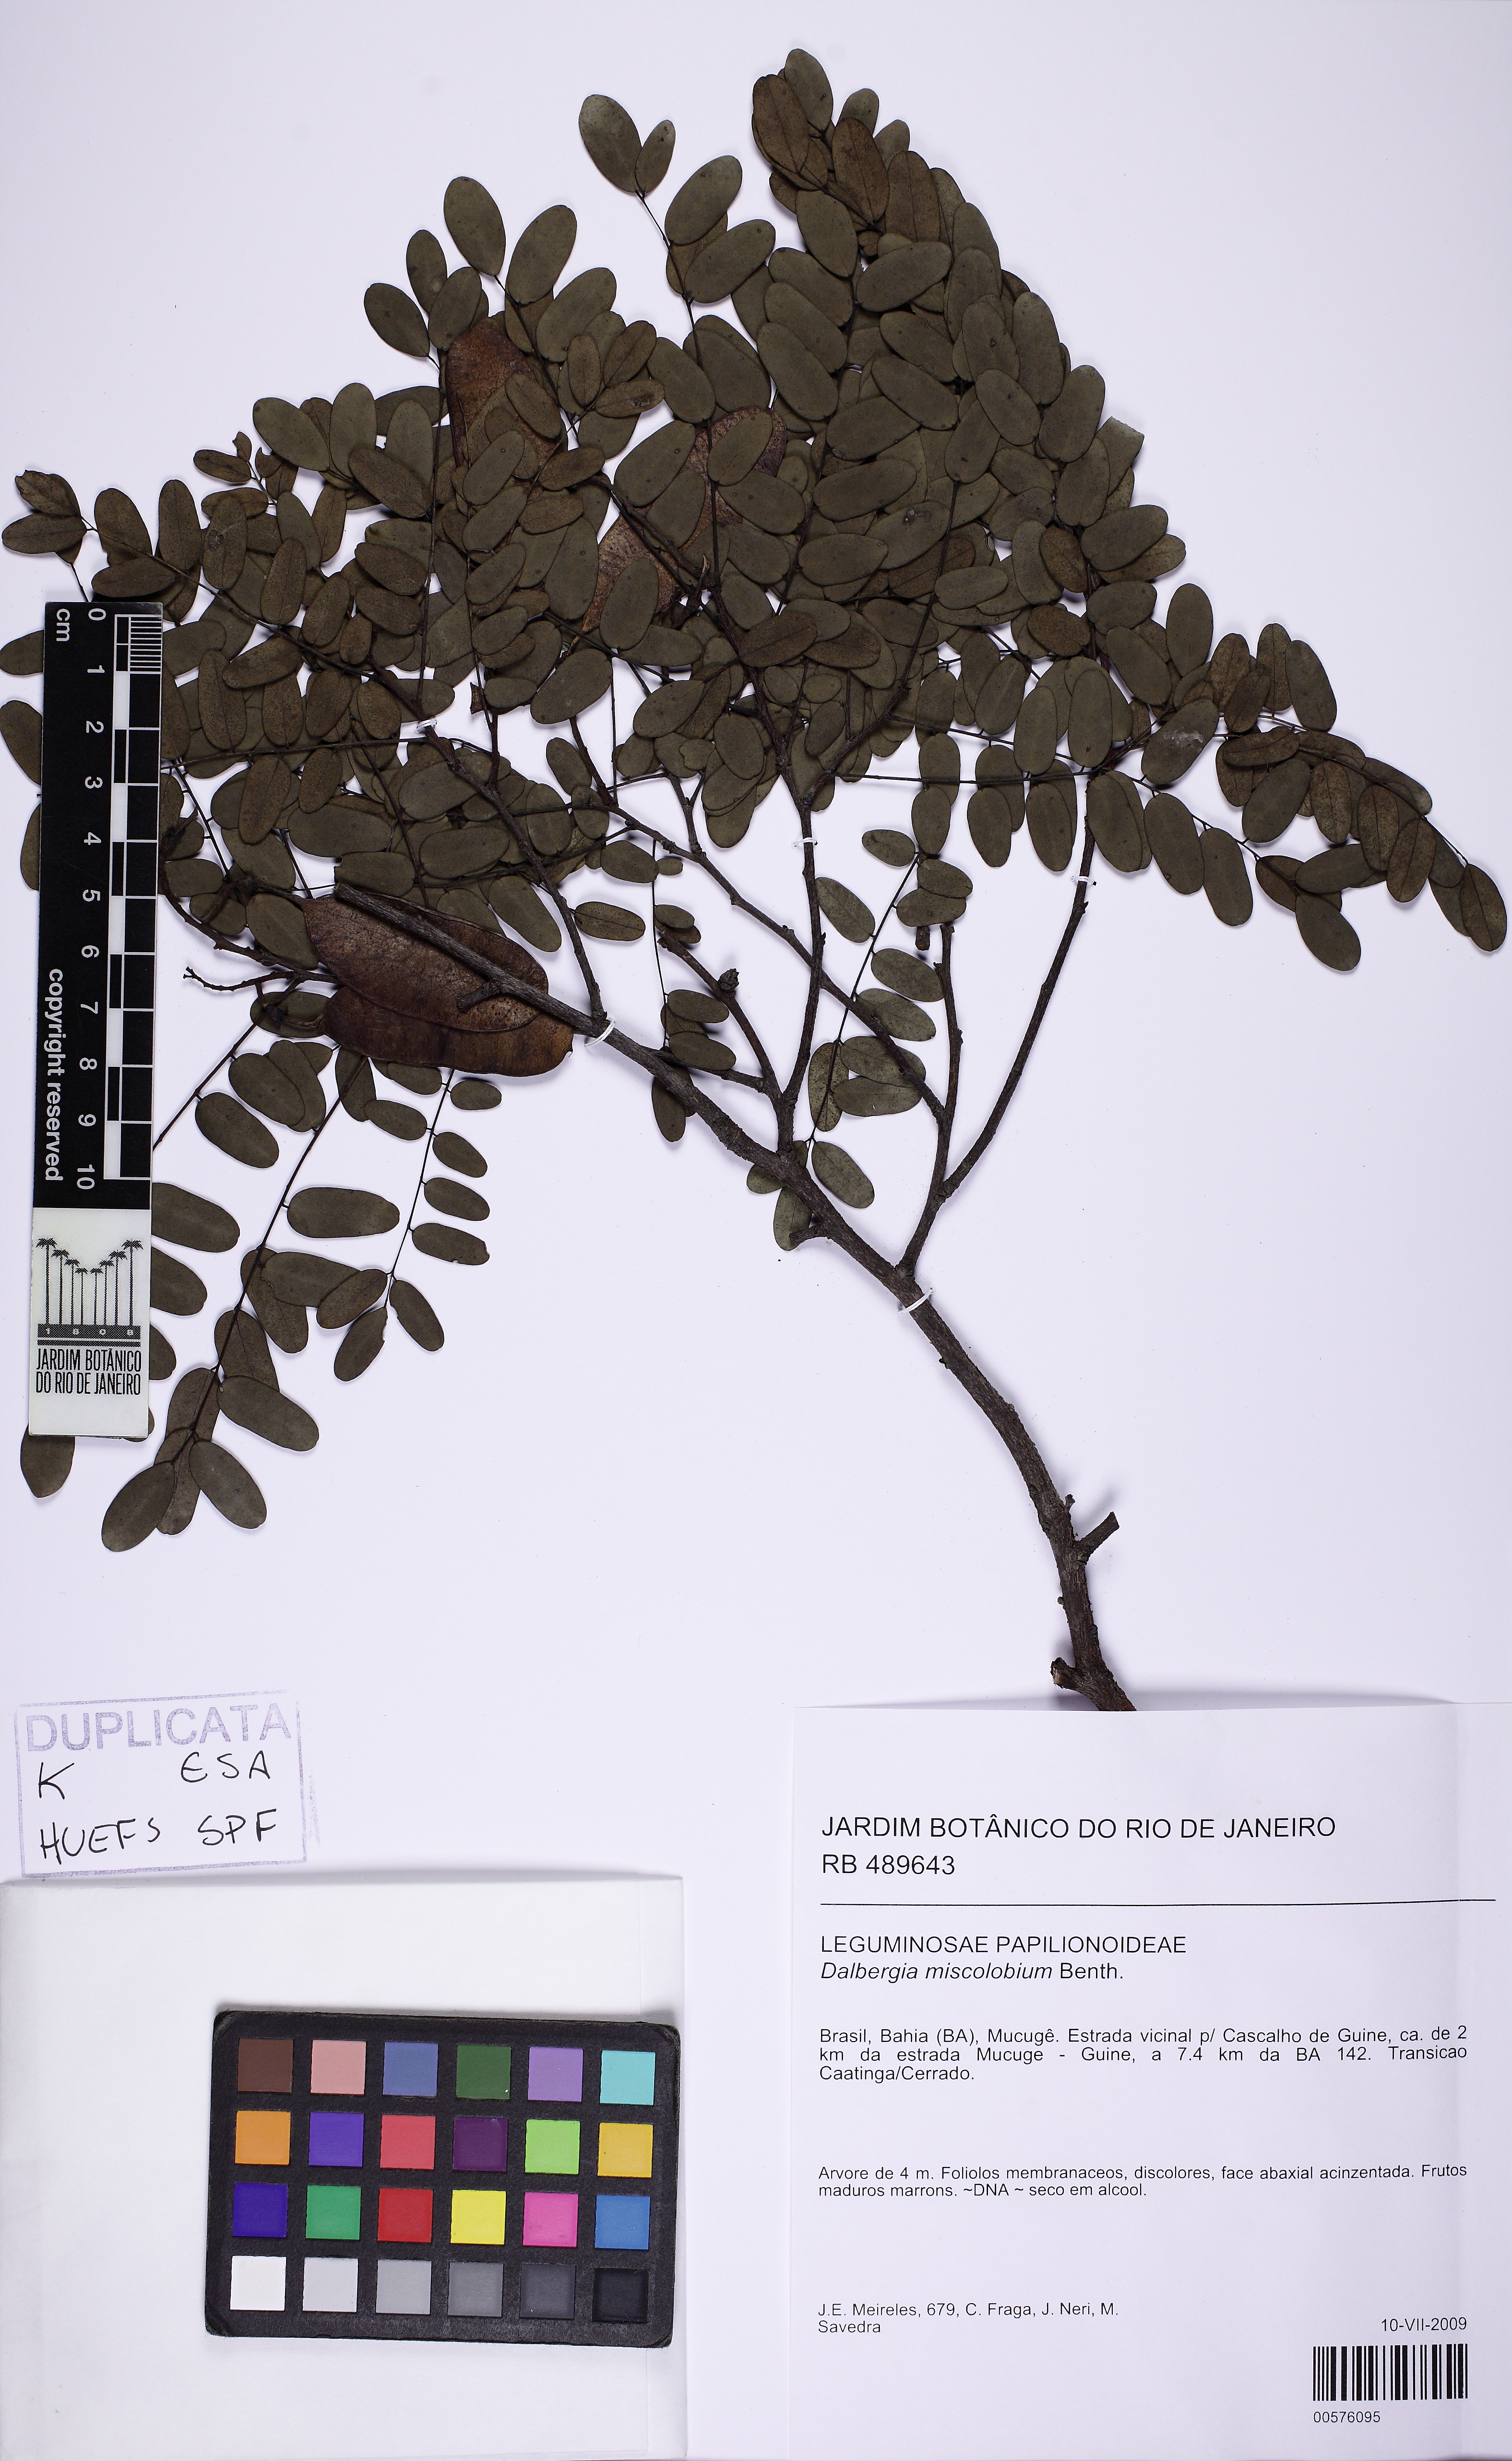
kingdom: Plantae
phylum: Tracheophyta
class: Magnoliopsida
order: Fabales
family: Fabaceae
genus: Dalbergia
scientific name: Dalbergia miscolobium
